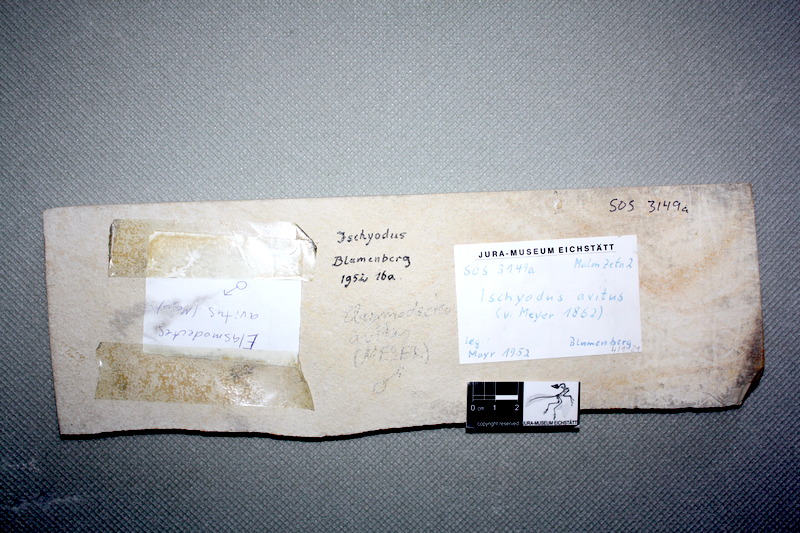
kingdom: Animalia
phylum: Chordata
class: Holocephali
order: Chimaeriformes
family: Rhinochimaeroidae
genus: Elasmodectes
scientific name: Elasmodectes avitus
